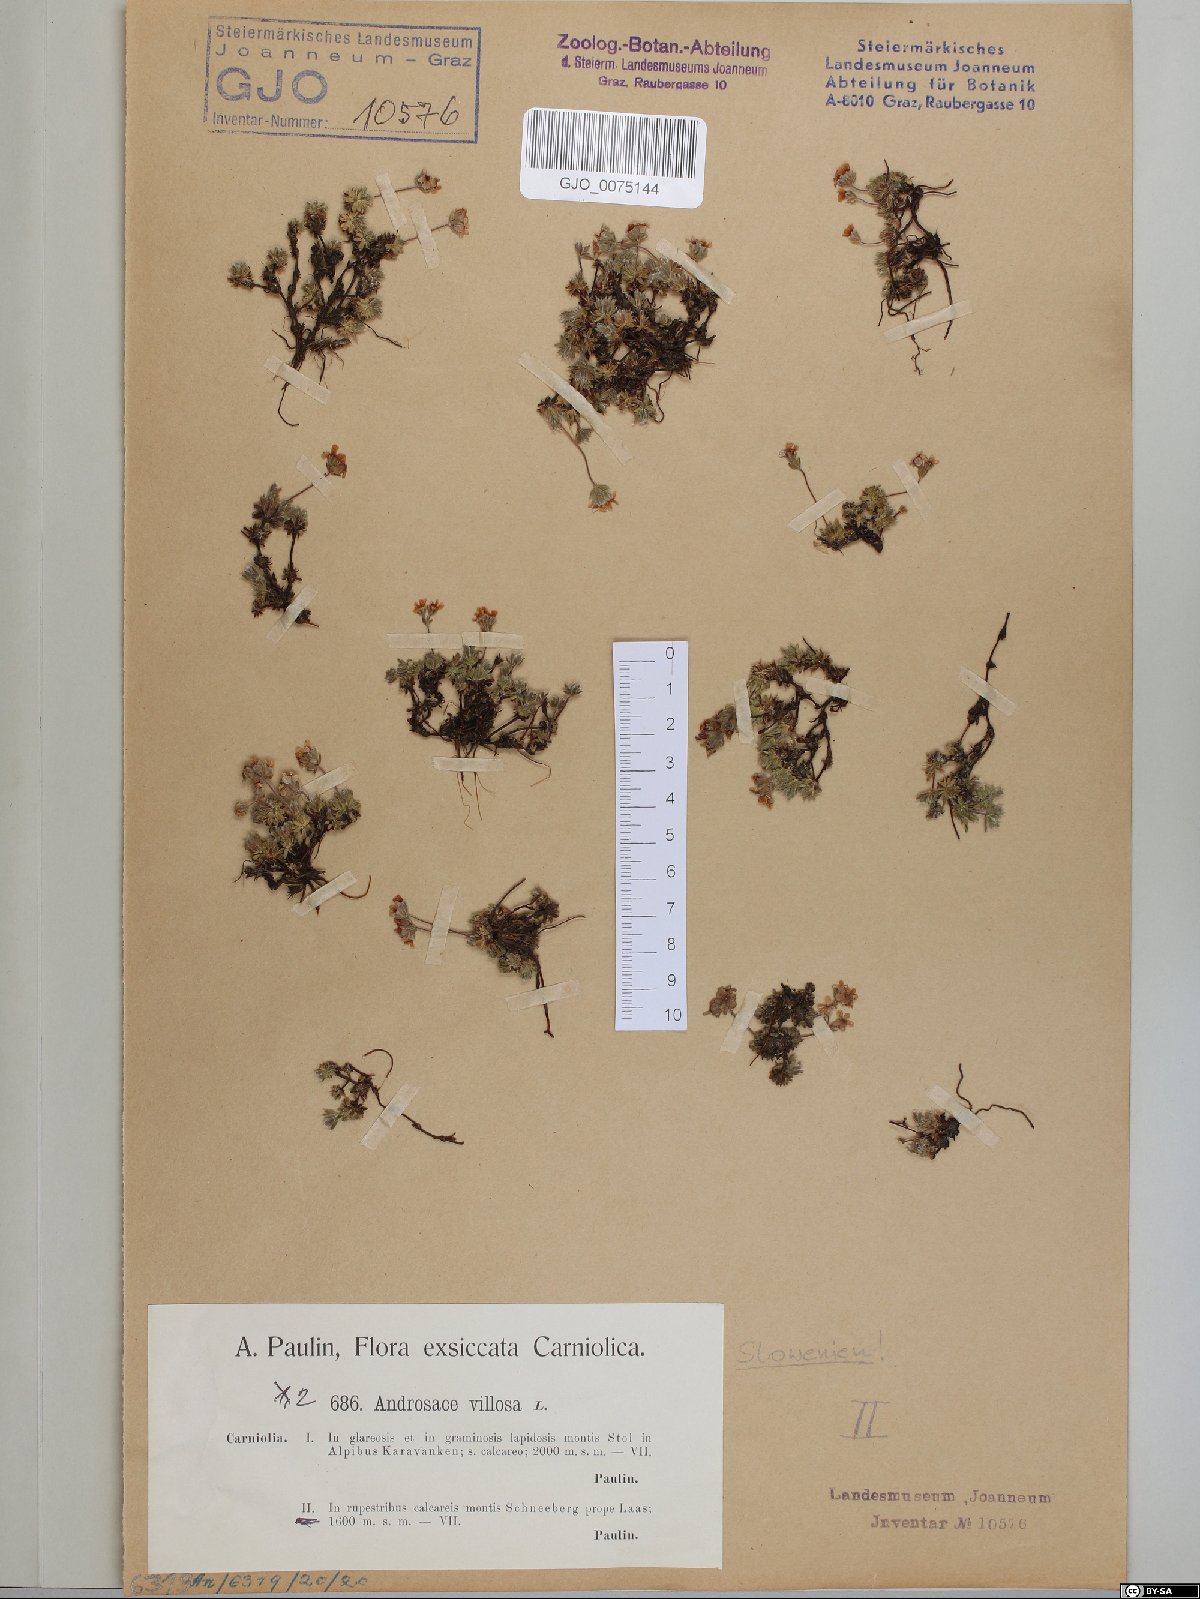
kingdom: Plantae
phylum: Tracheophyta
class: Magnoliopsida
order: Ericales
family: Primulaceae
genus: Androsace
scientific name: Androsace villosa
